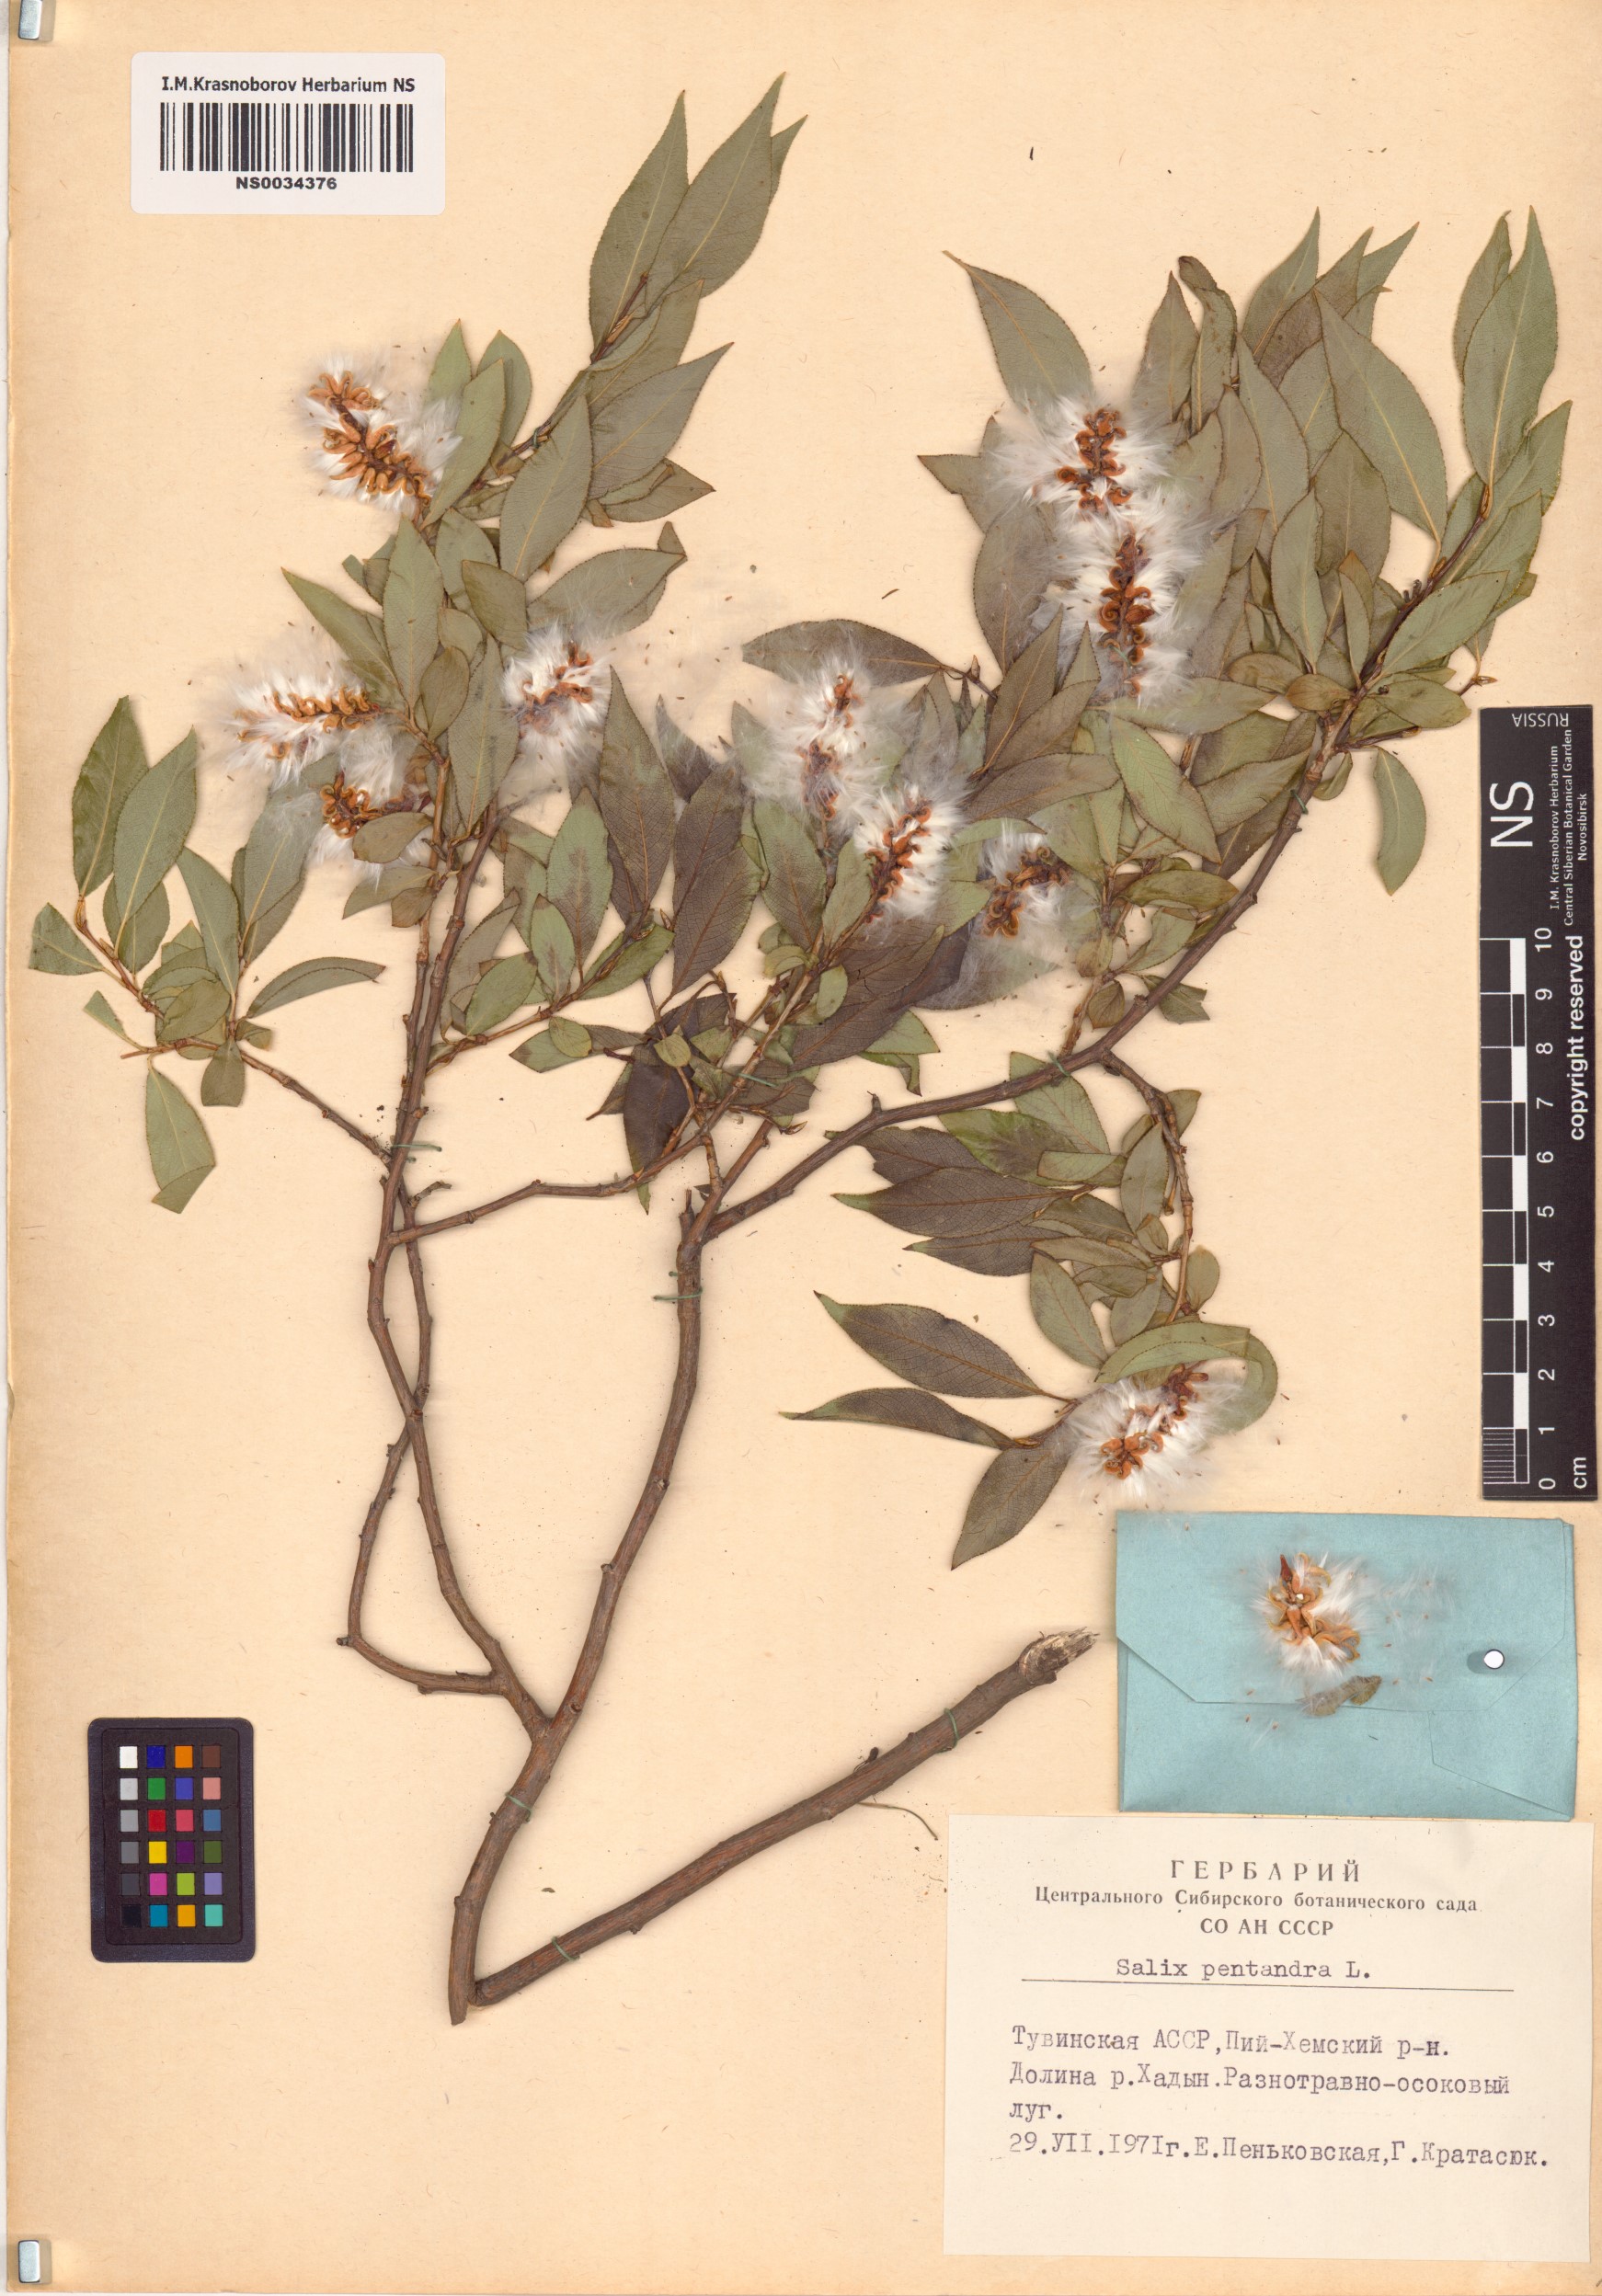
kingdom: Plantae
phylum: Tracheophyta
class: Magnoliopsida
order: Malpighiales
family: Salicaceae
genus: Salix
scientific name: Salix pentandra
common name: Bay willow
